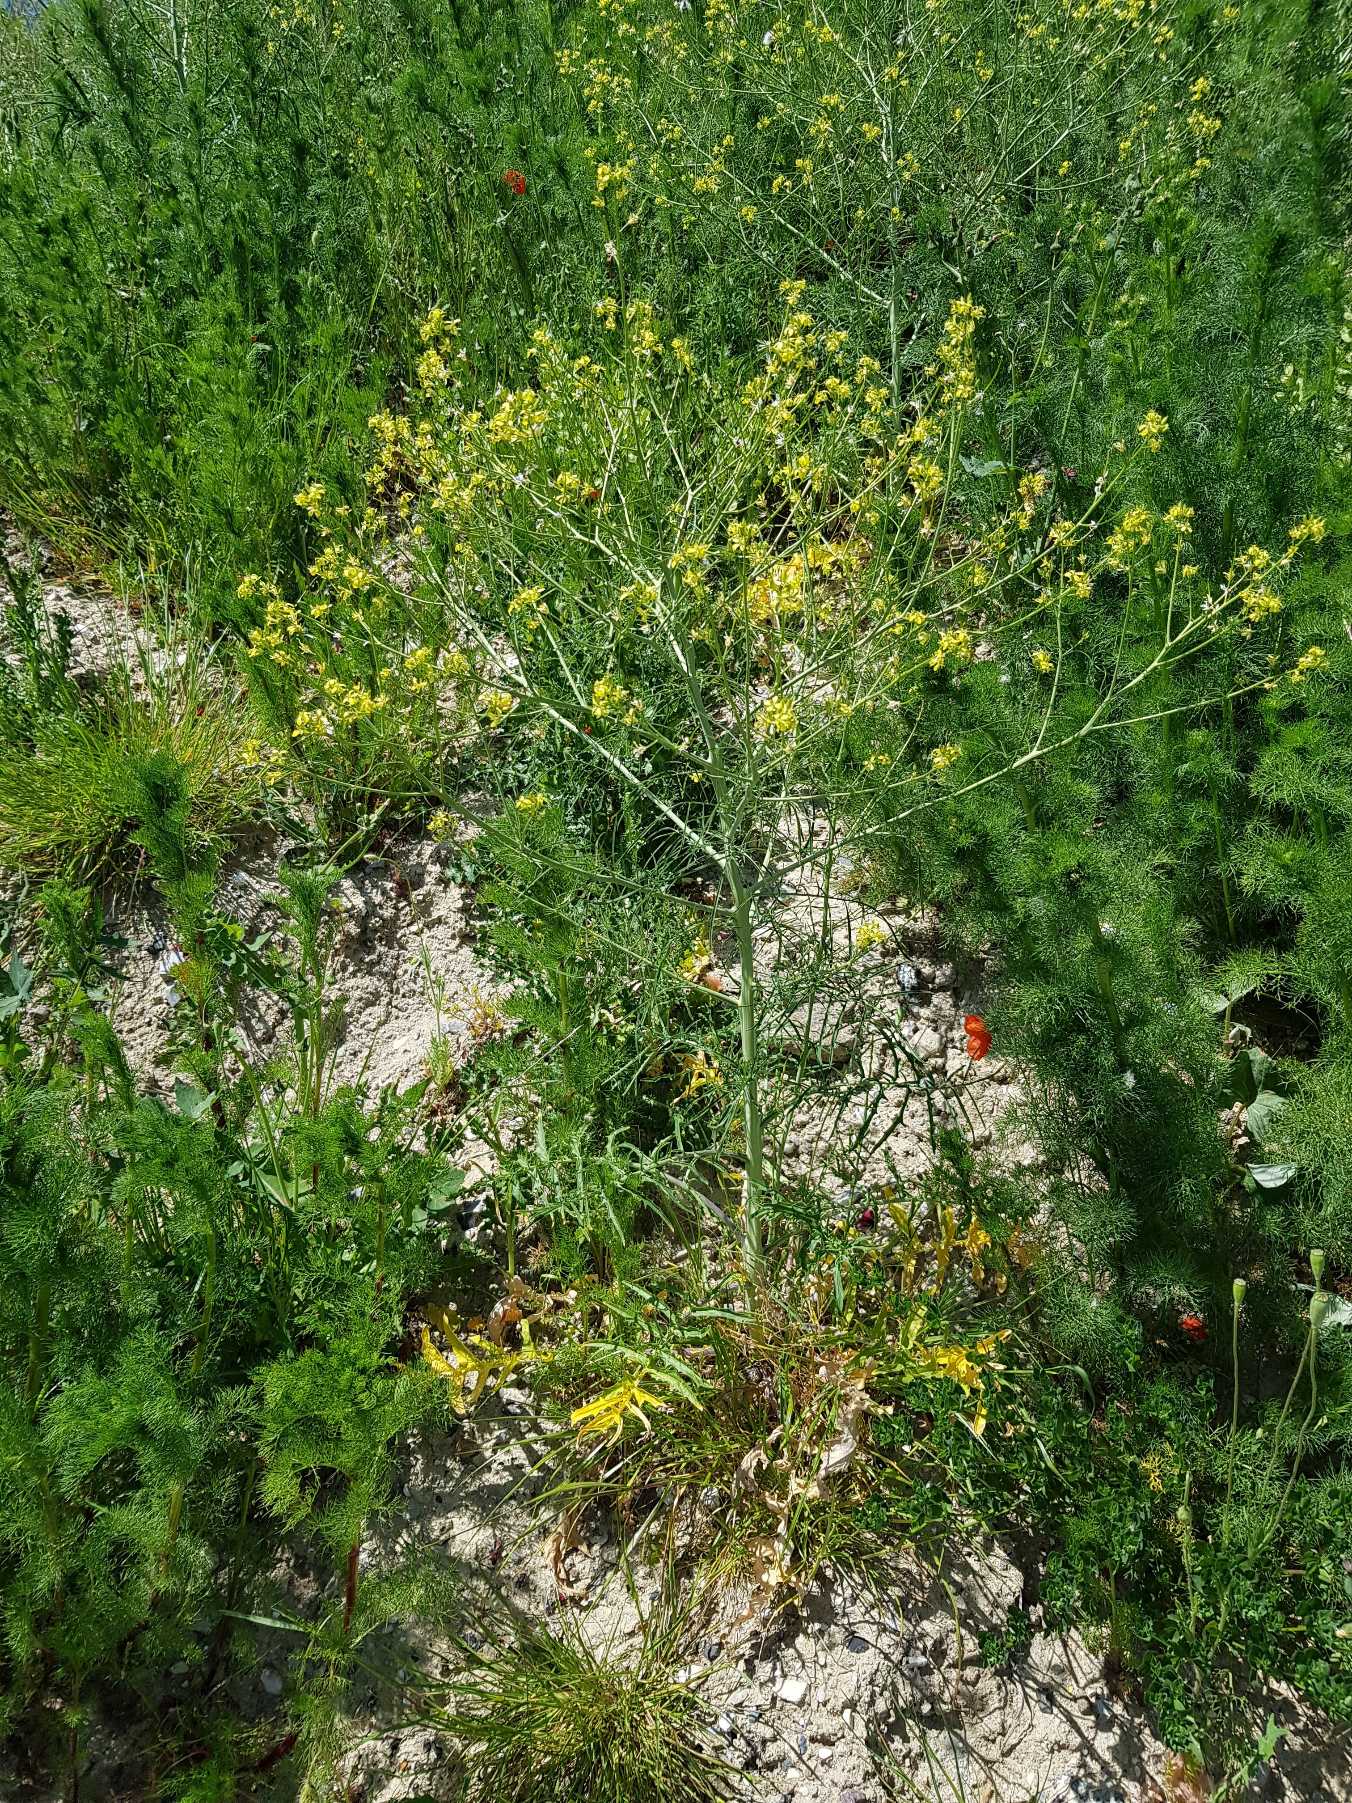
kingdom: Plantae
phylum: Tracheophyta
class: Magnoliopsida
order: Brassicales
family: Brassicaceae
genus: Sisymbrium
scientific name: Sisymbrium altissimum
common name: Ungarsk vejsennep
